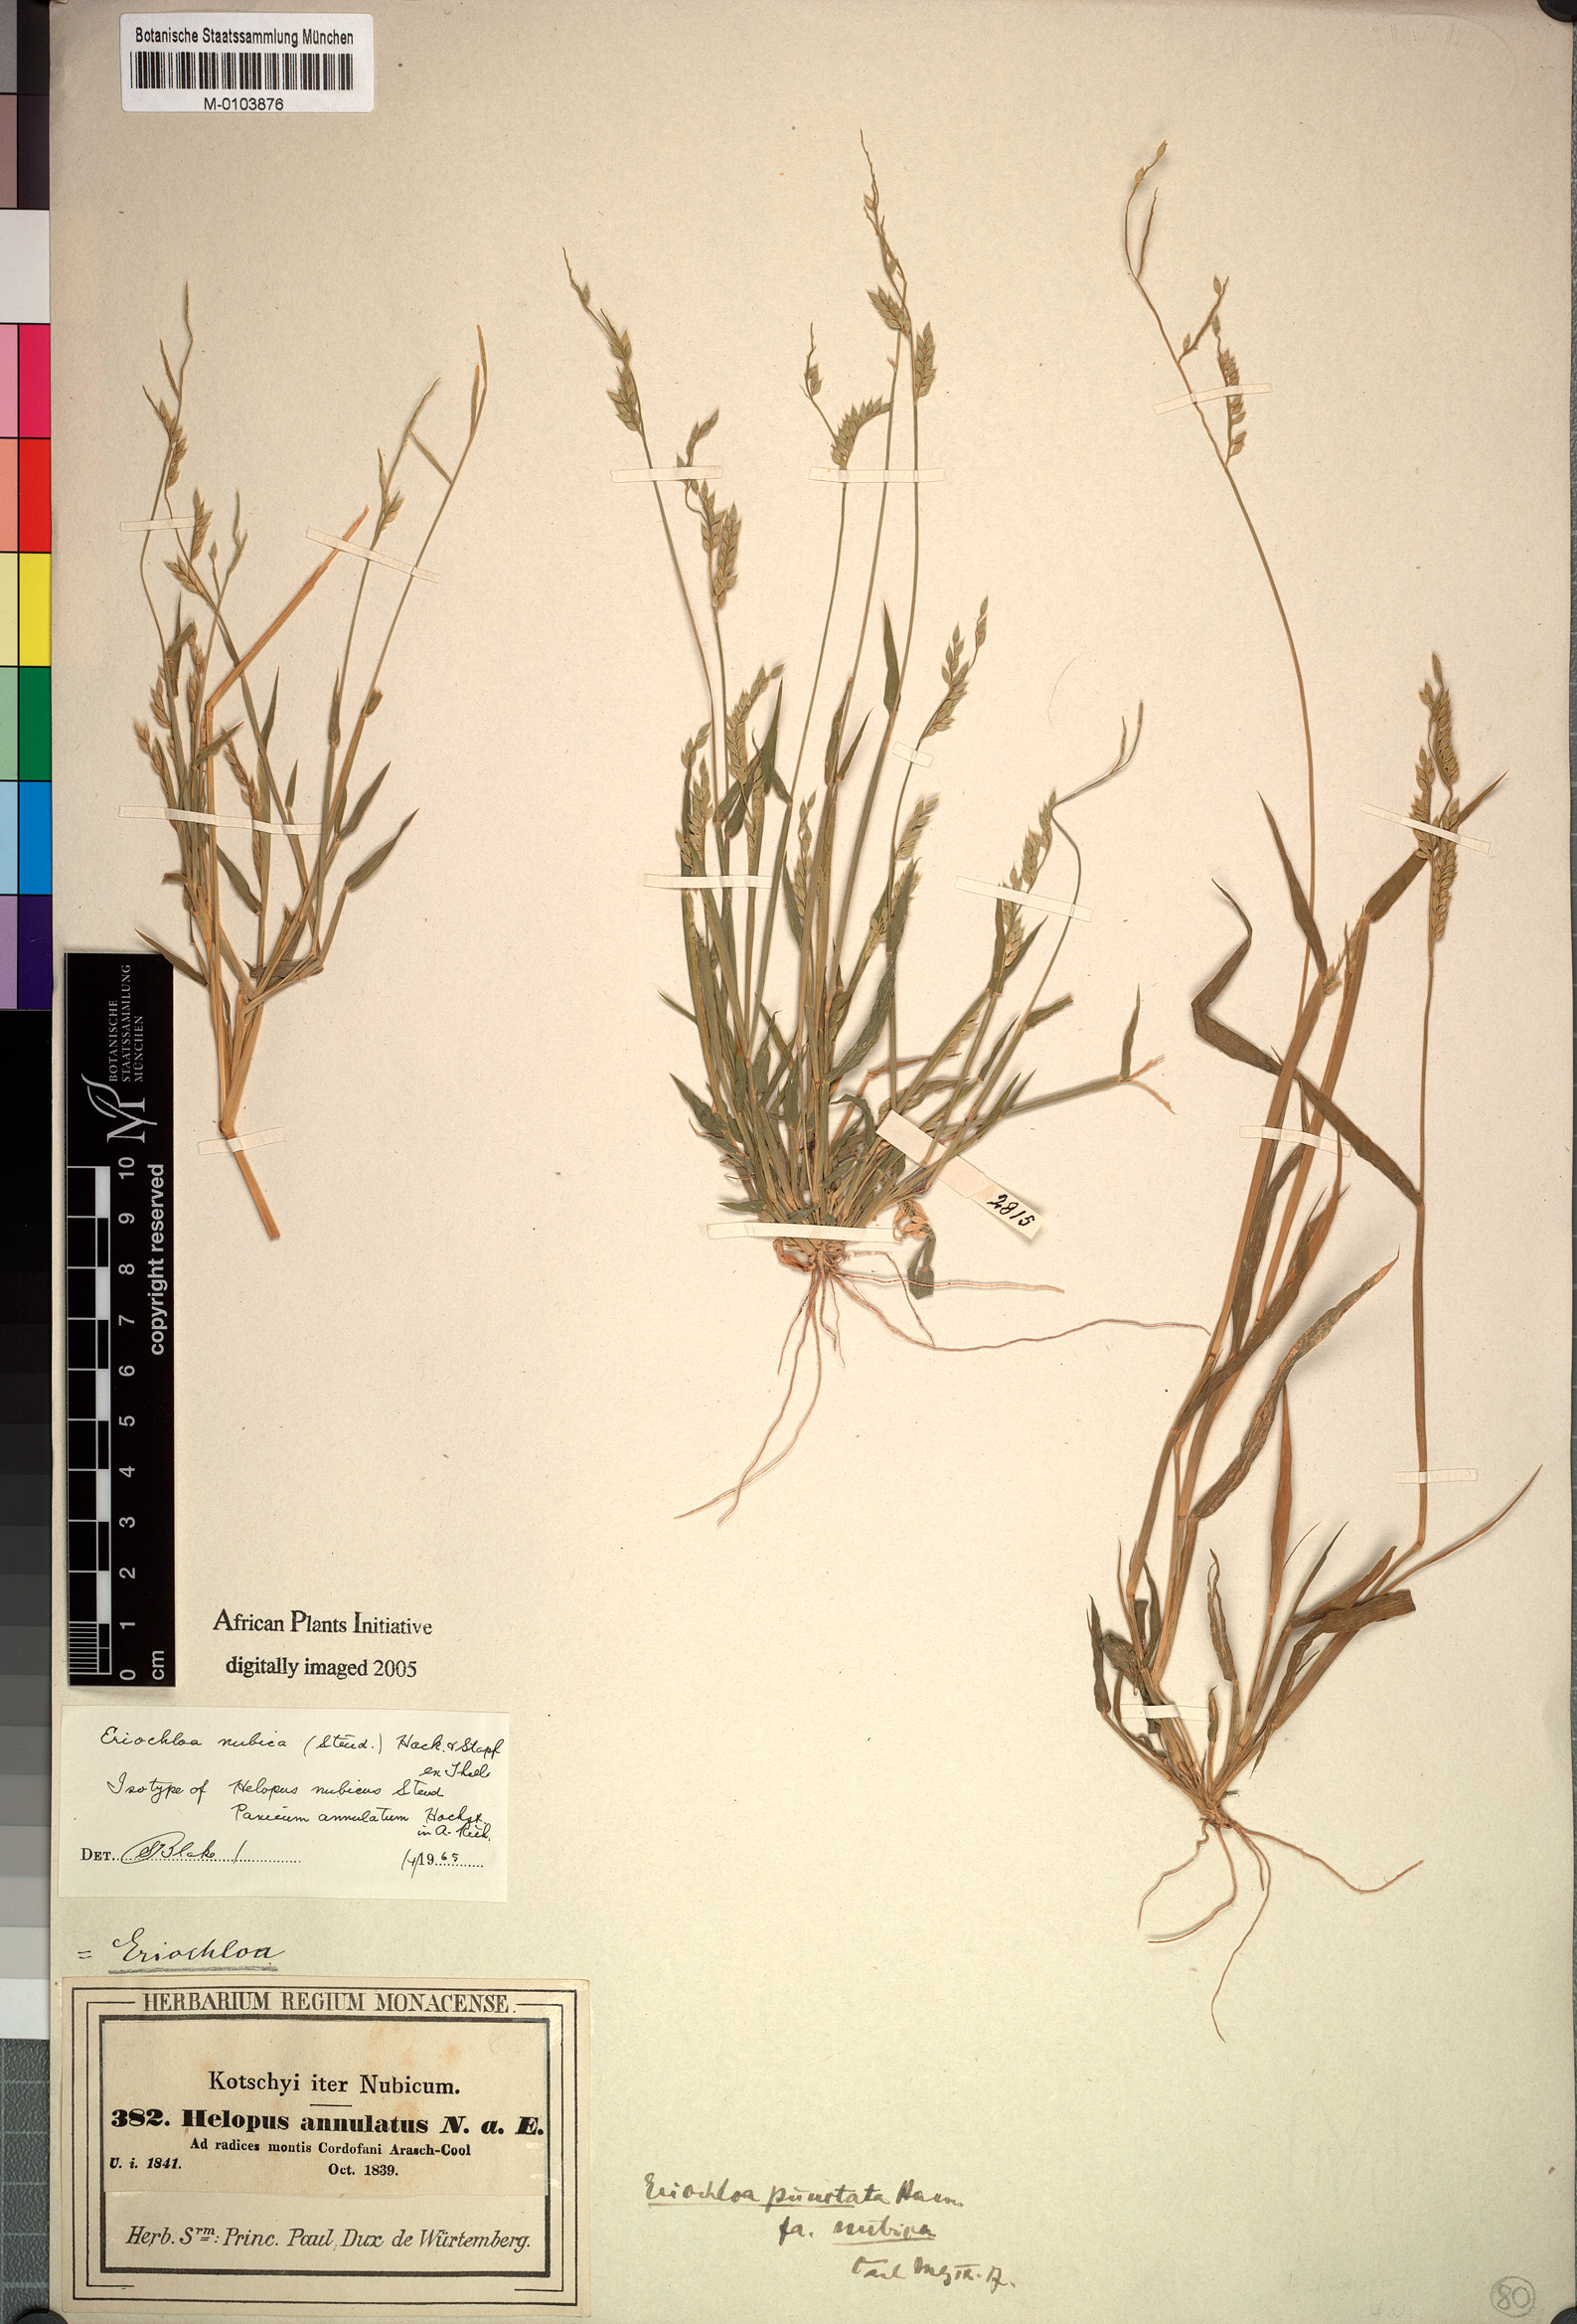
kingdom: Plantae
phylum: Tracheophyta
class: Liliopsida
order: Poales
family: Poaceae
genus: Eriochloa
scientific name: Eriochloa barbatus
